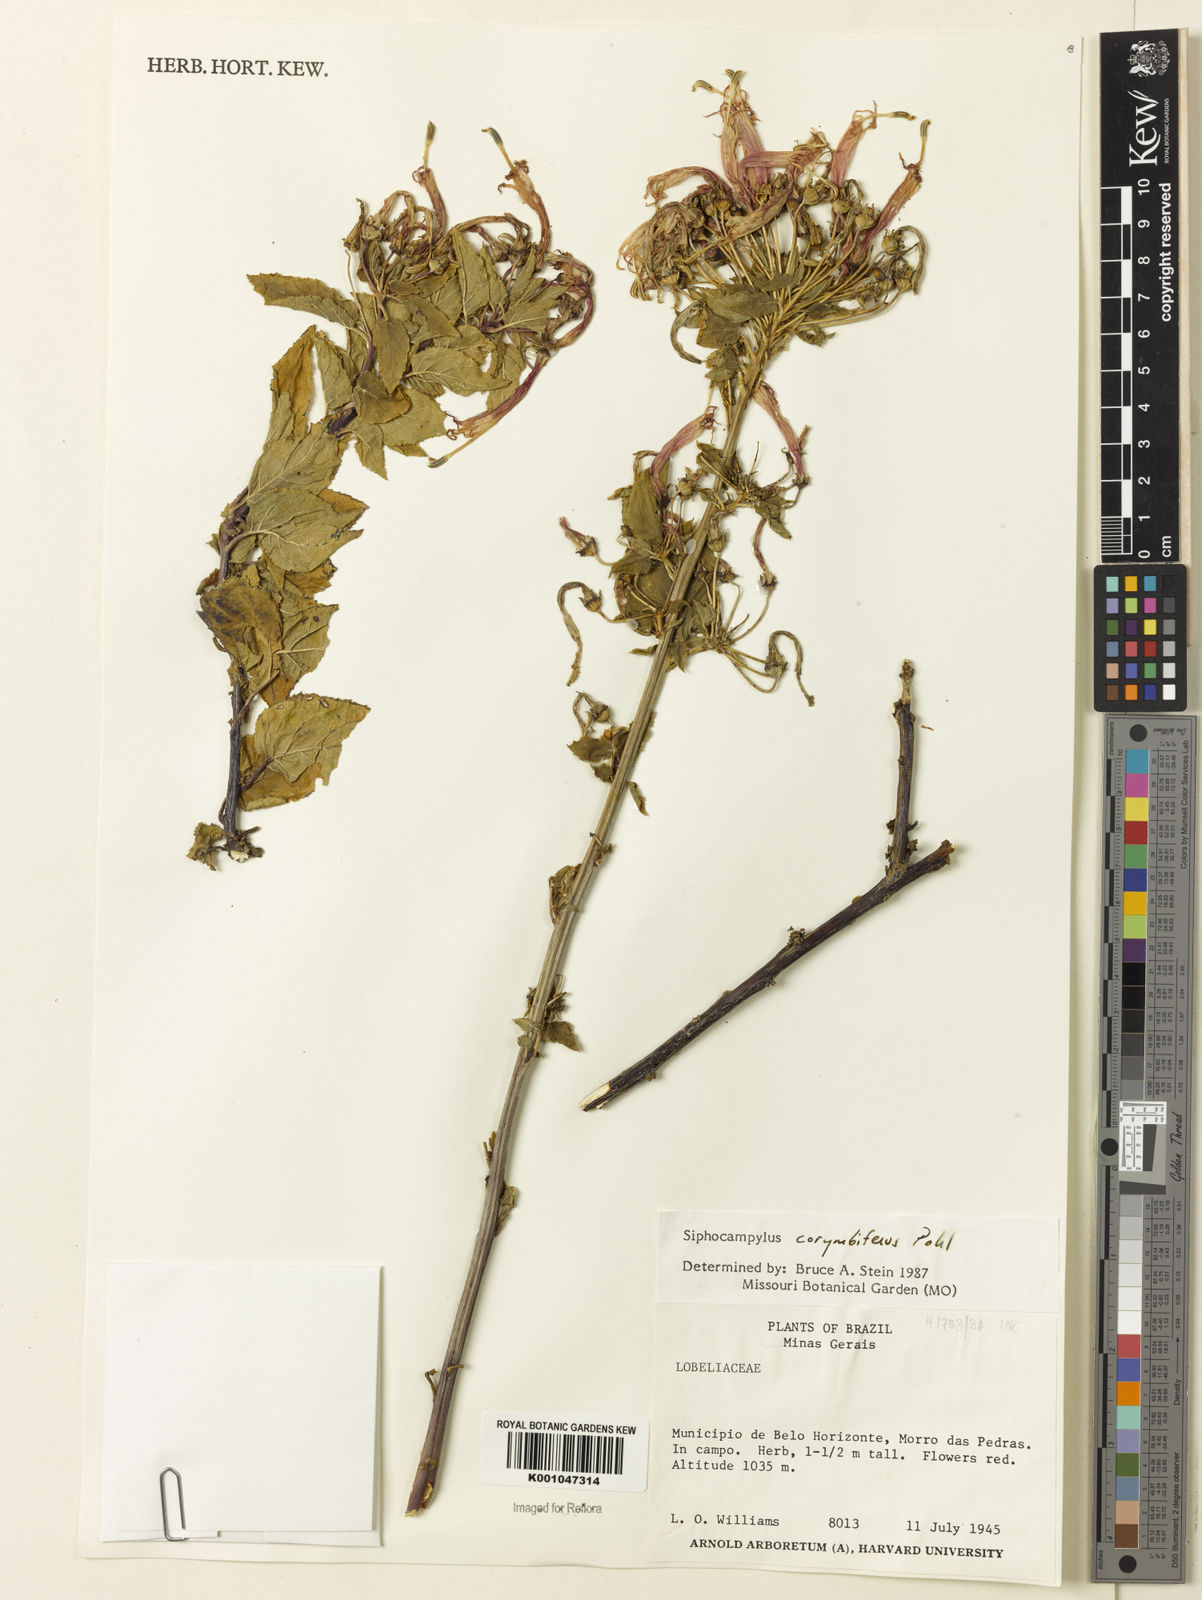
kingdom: Plantae
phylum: Tracheophyta
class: Magnoliopsida
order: Asterales
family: Campanulaceae
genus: Siphocampylus
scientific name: Siphocampylus corymbifer
